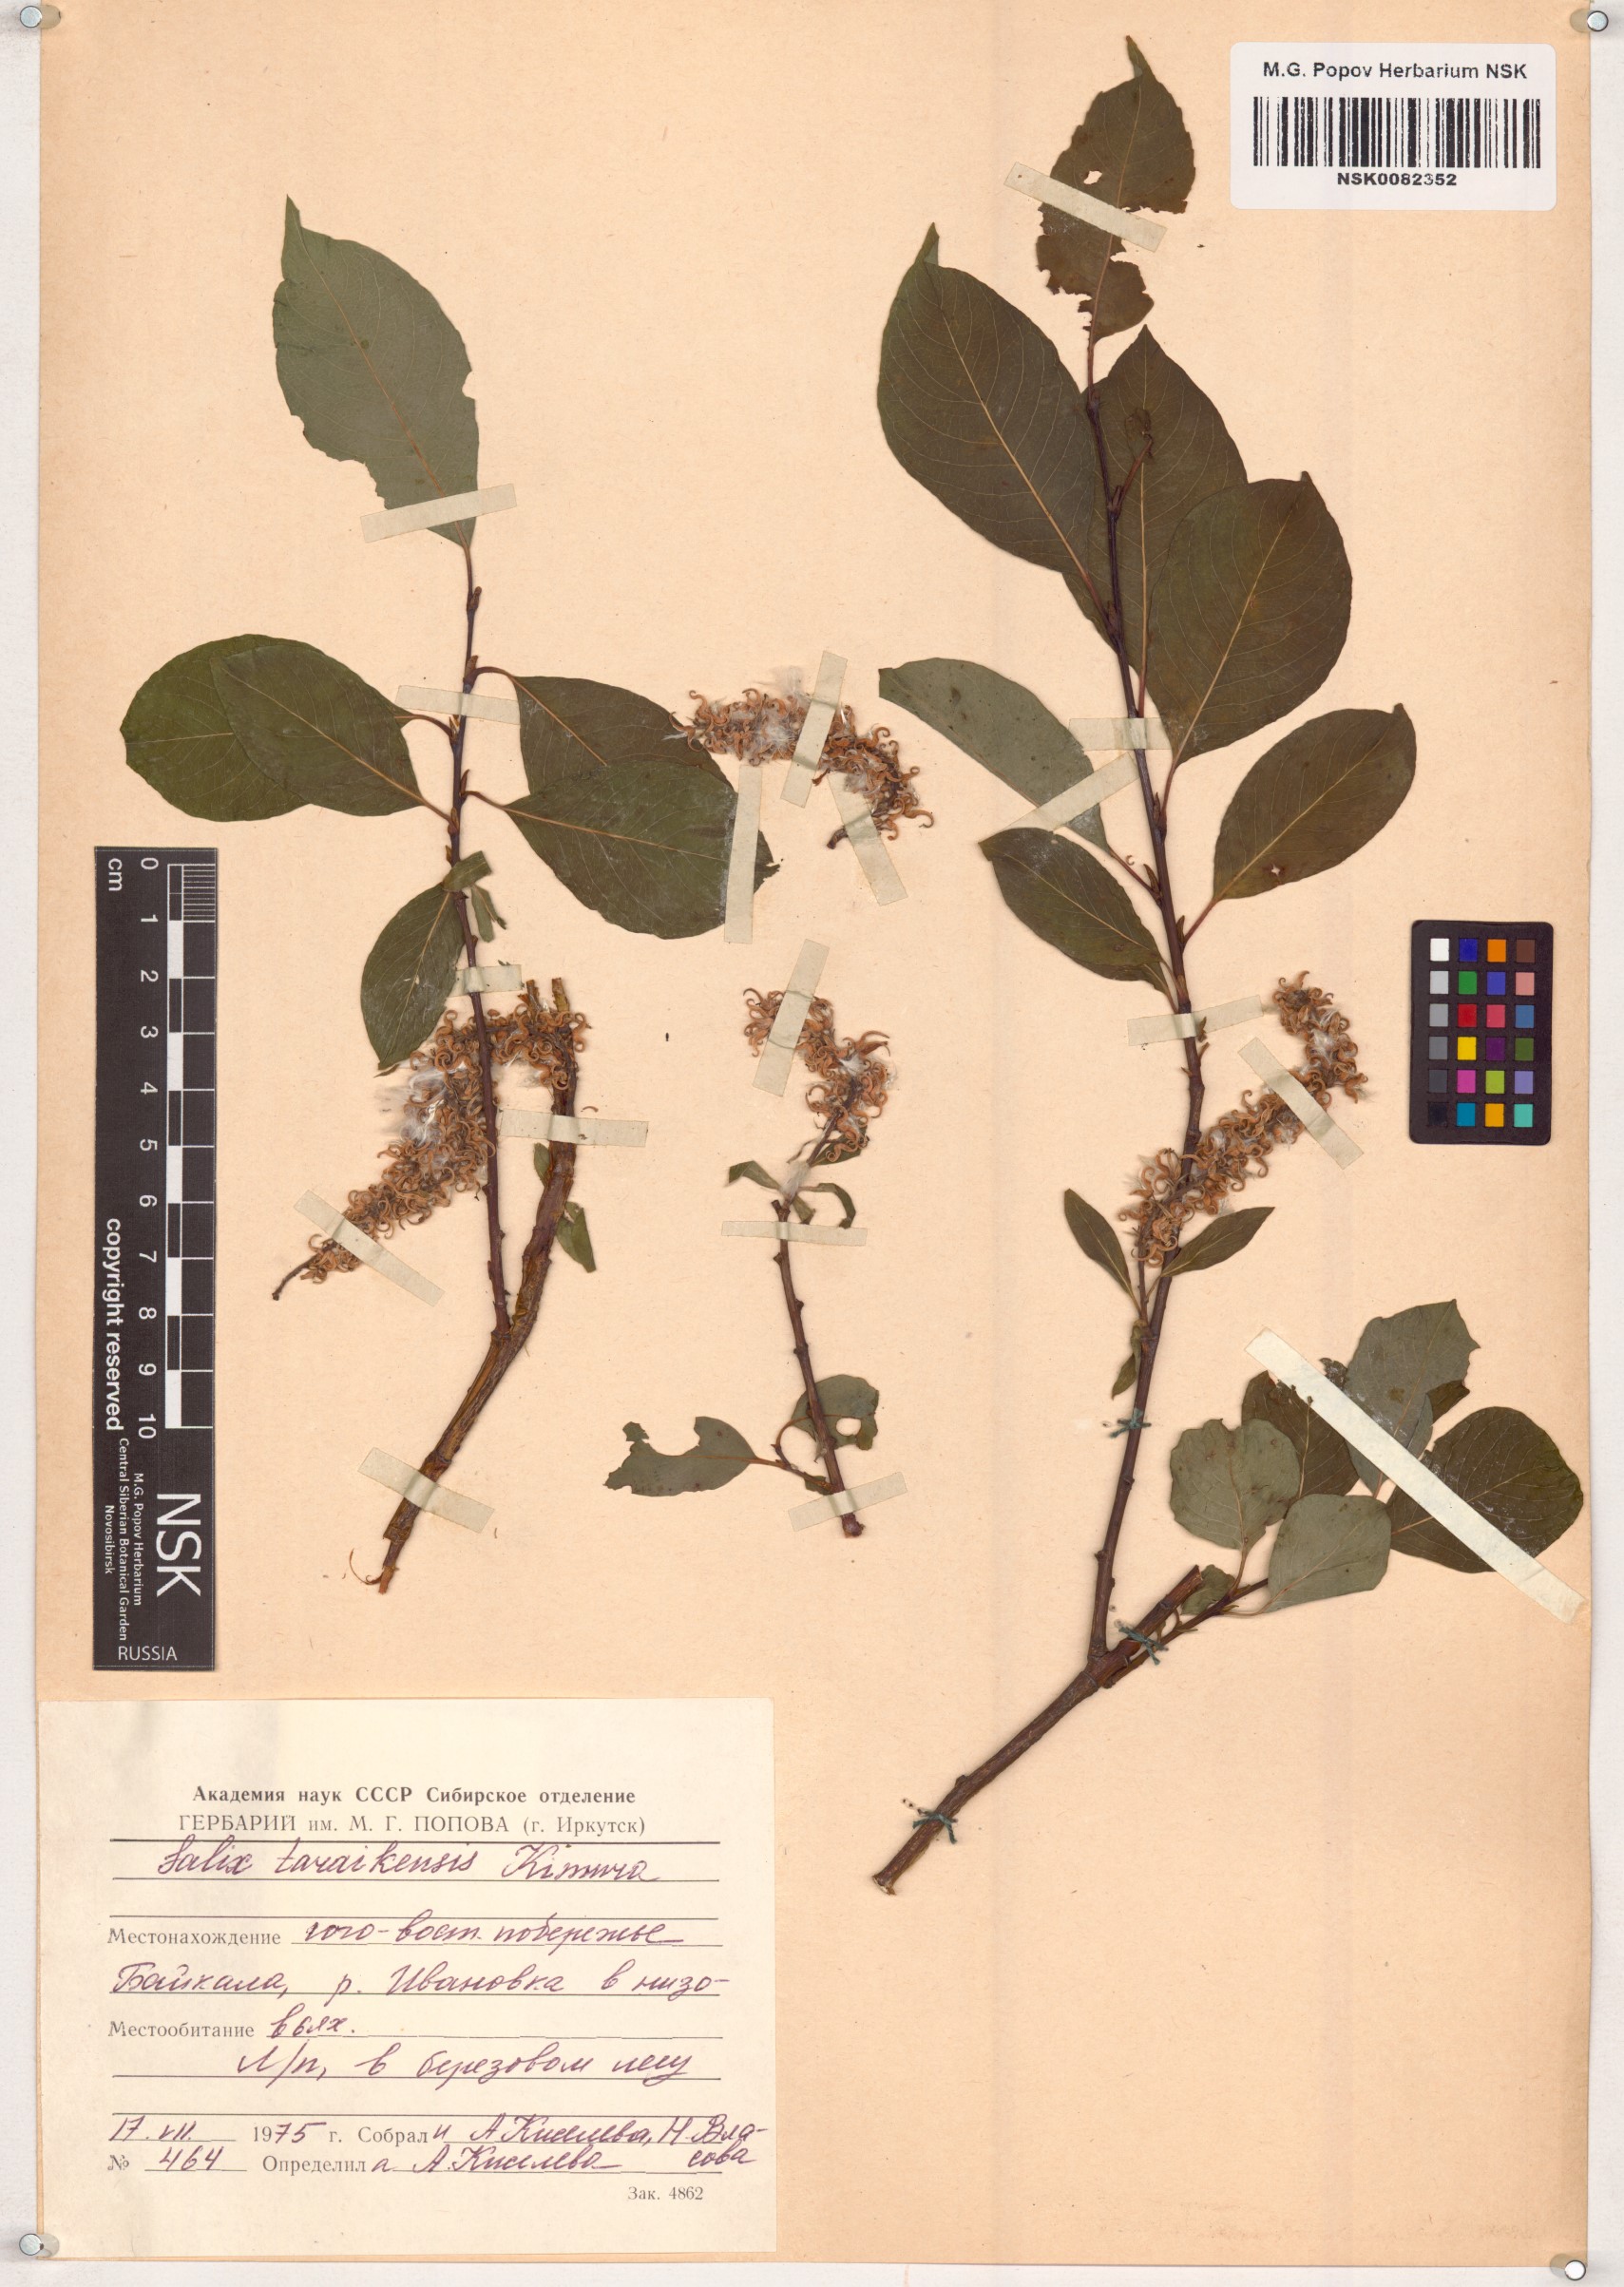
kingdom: Plantae
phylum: Tracheophyta
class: Magnoliopsida
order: Malpighiales
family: Salicaceae
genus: Salix
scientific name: Salix taraikensis
